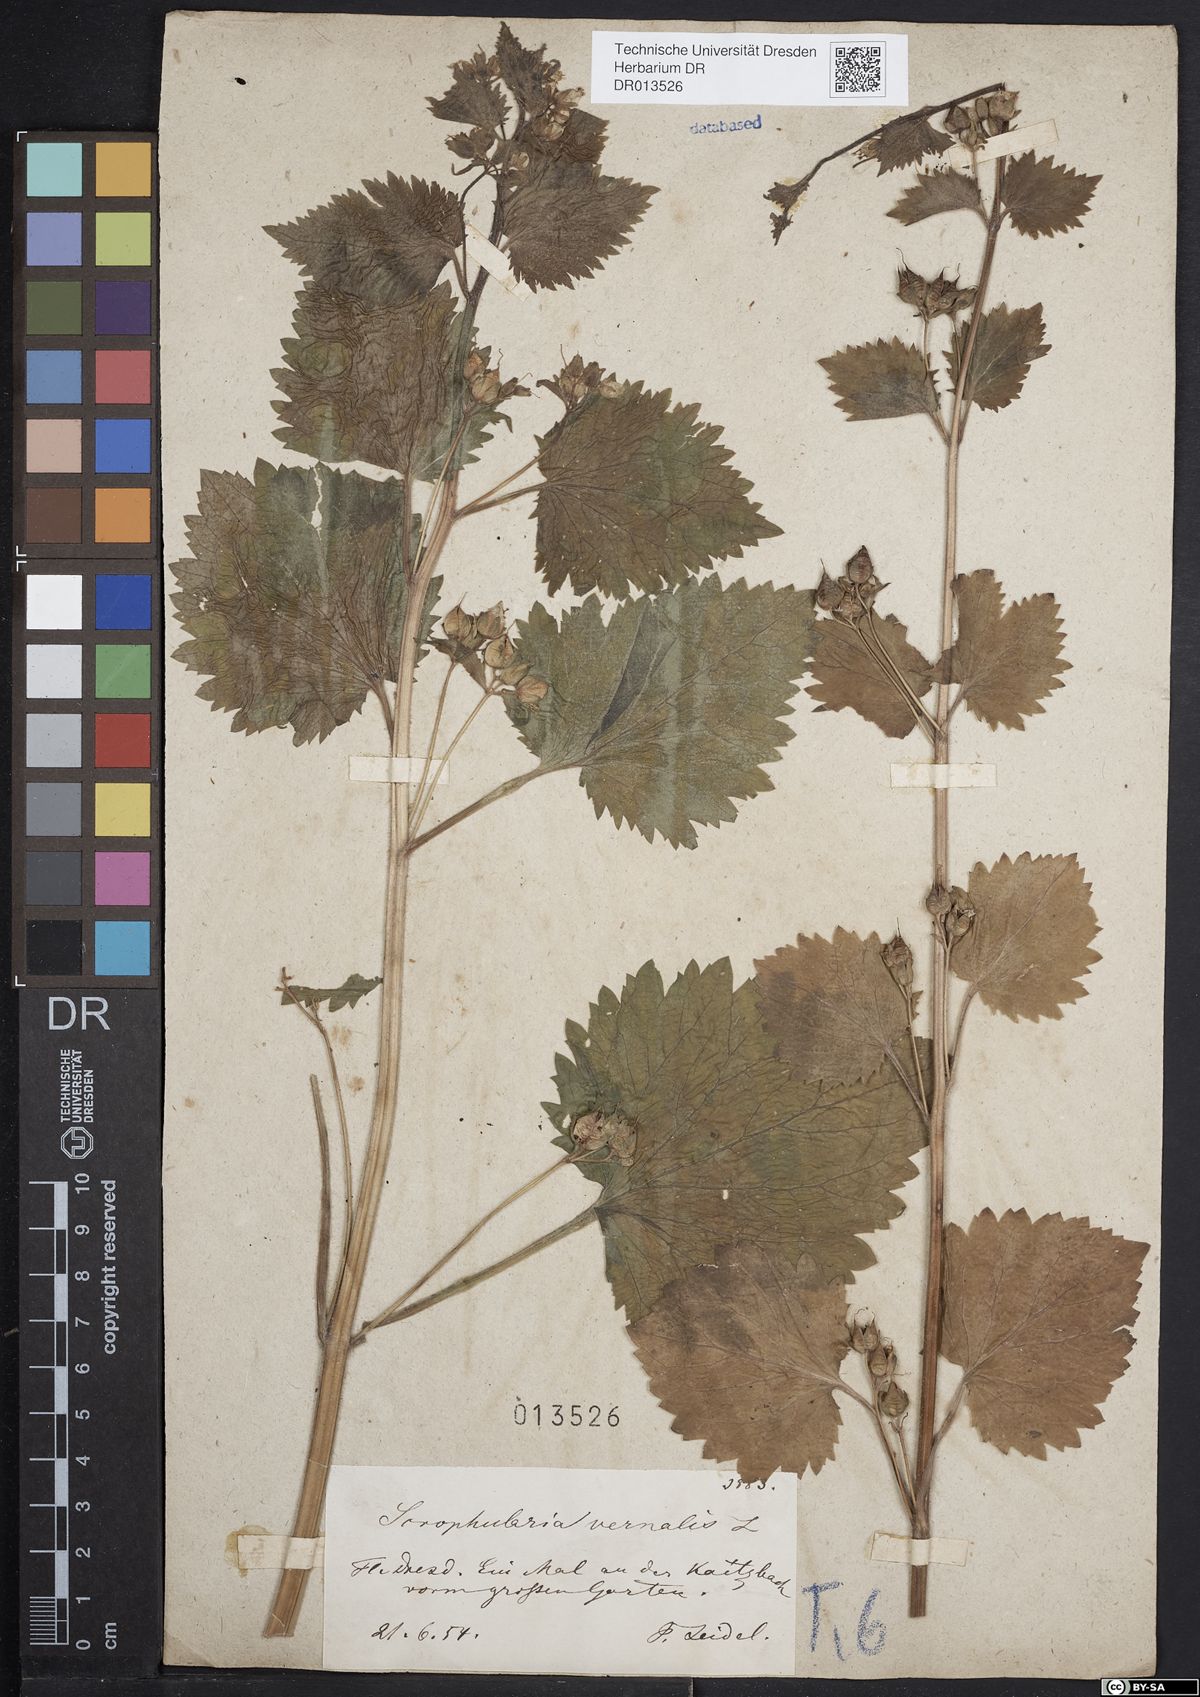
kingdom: Plantae
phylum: Tracheophyta
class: Magnoliopsida
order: Lamiales
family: Scrophulariaceae
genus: Scrophularia
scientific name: Scrophularia vernalis
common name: Yellow figwort
